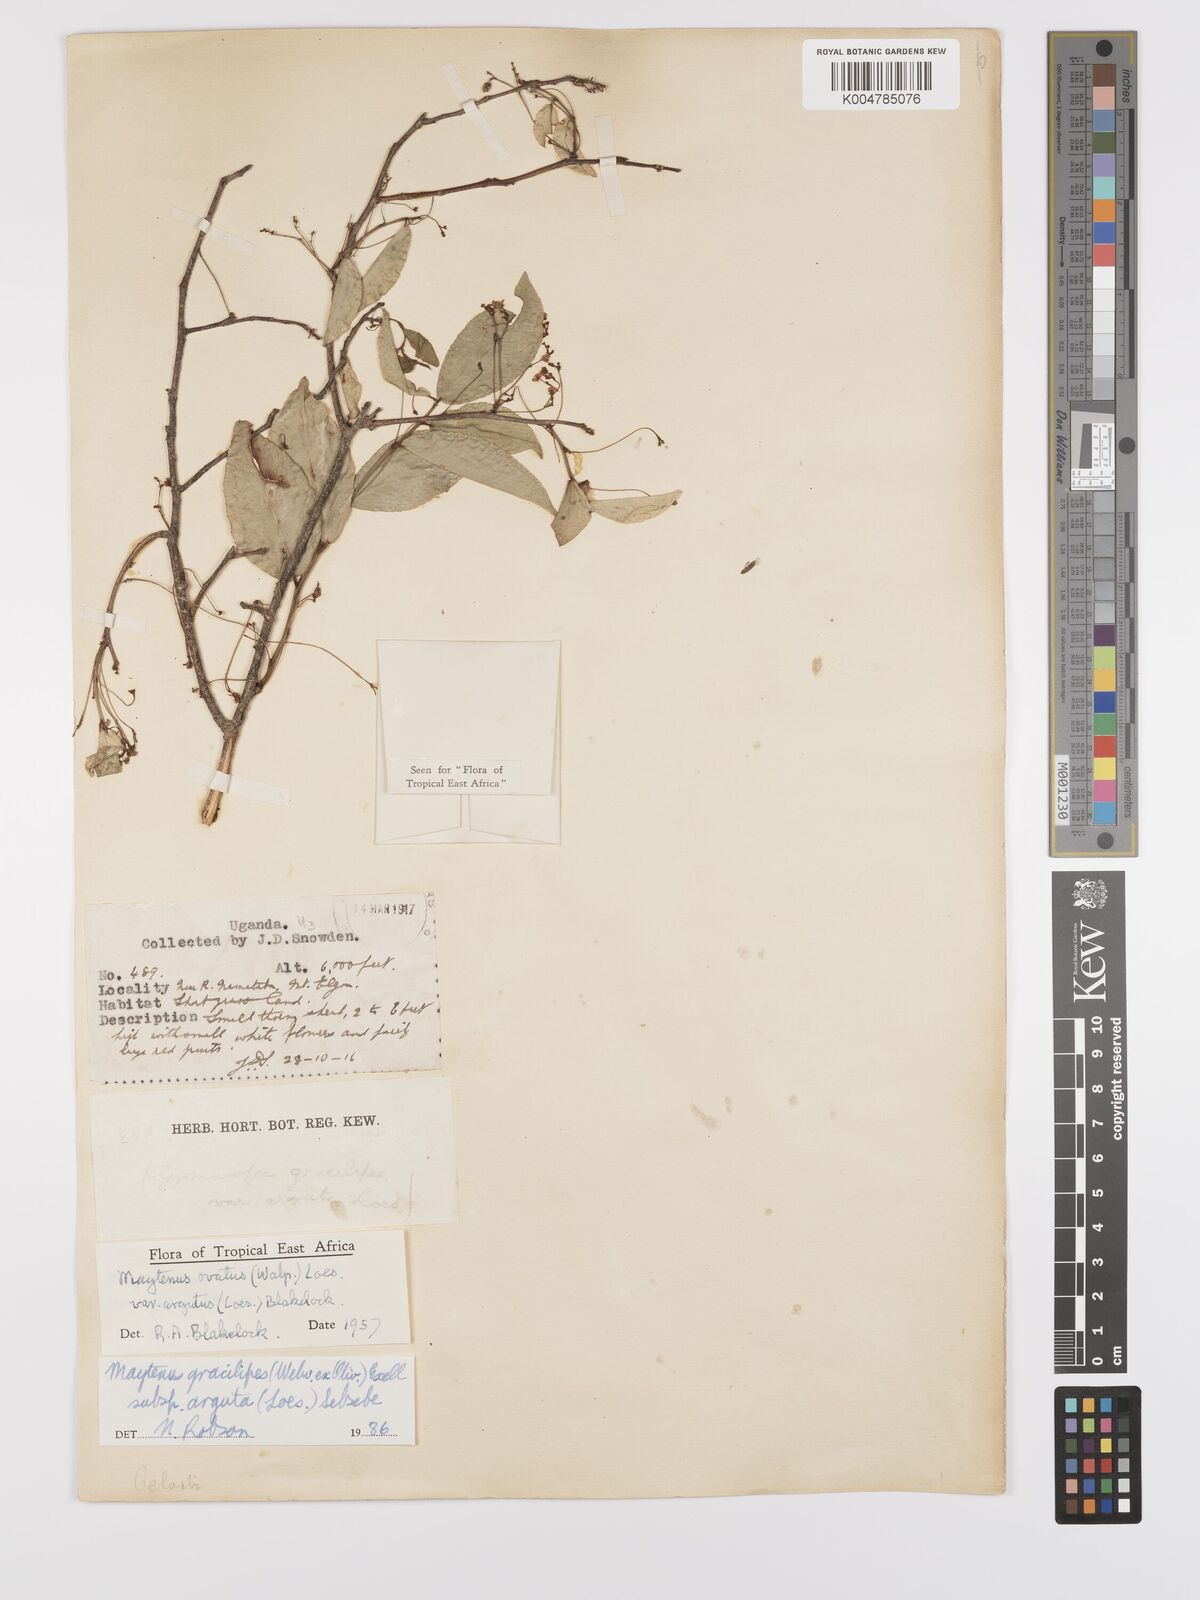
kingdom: Plantae
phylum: Tracheophyta
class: Magnoliopsida
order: Celastrales
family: Celastraceae
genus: Gymnosporia
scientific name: Gymnosporia gracilipes
